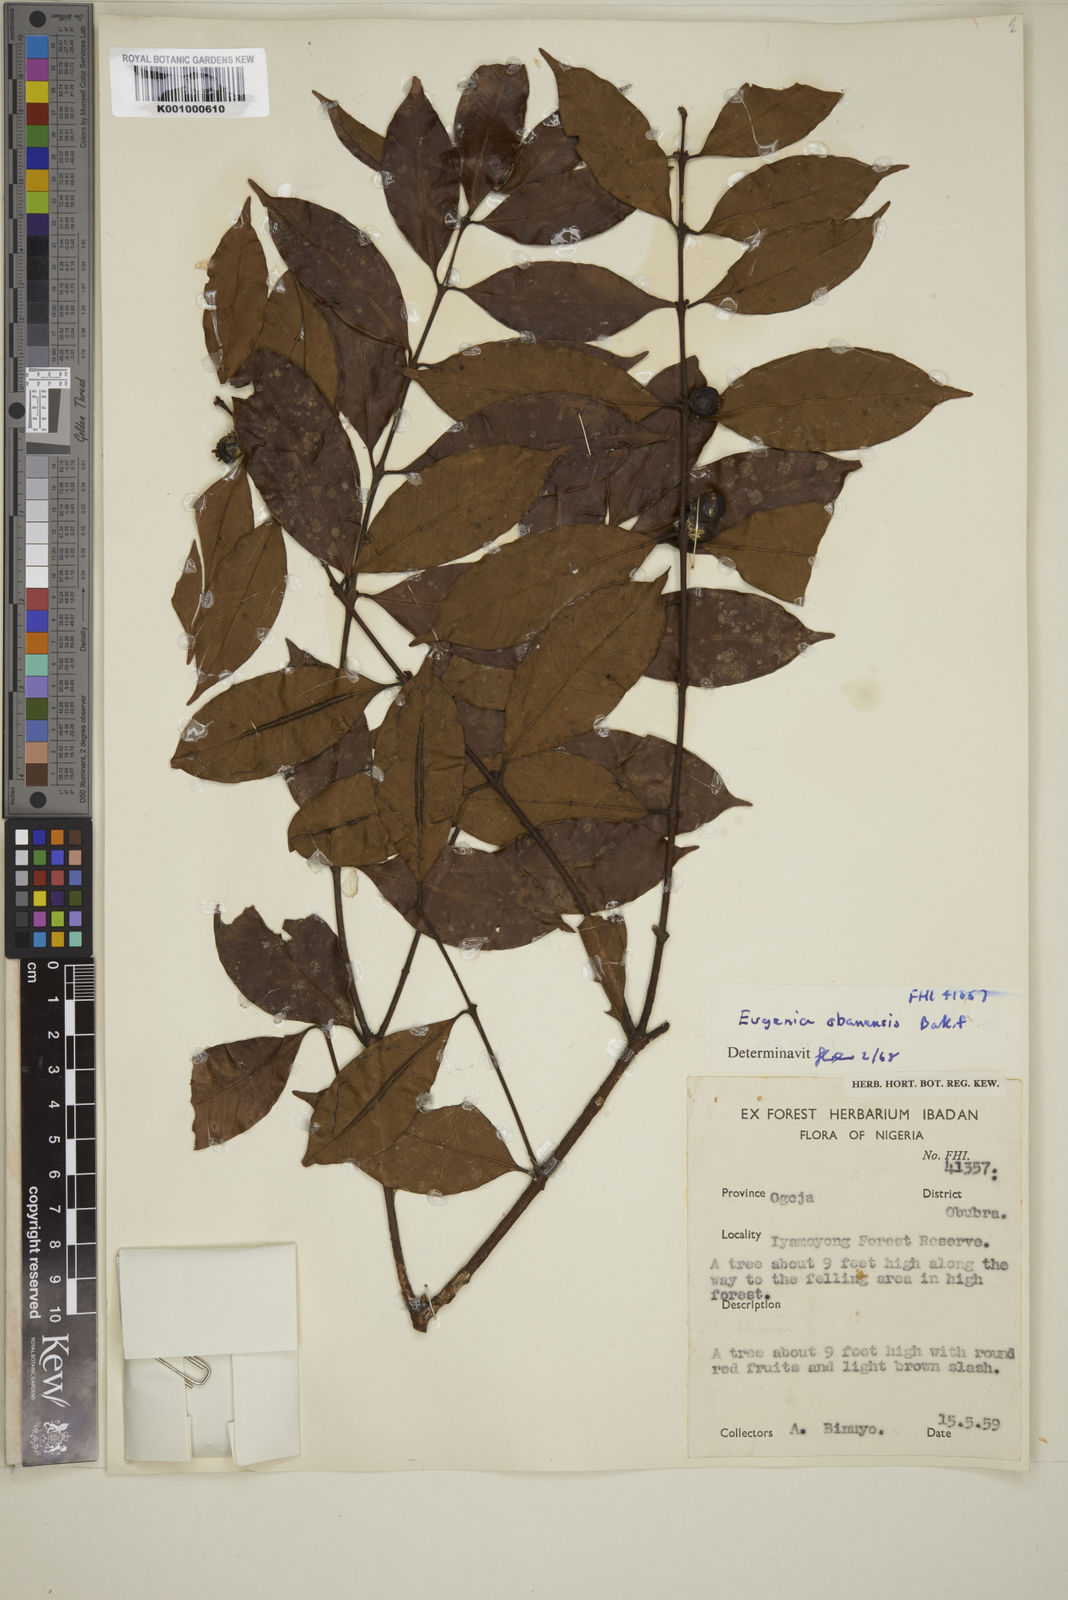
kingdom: Plantae
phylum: Tracheophyta
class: Magnoliopsida
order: Myrtales
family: Myrtaceae
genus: Eugenia
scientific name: Eugenia obanensis
